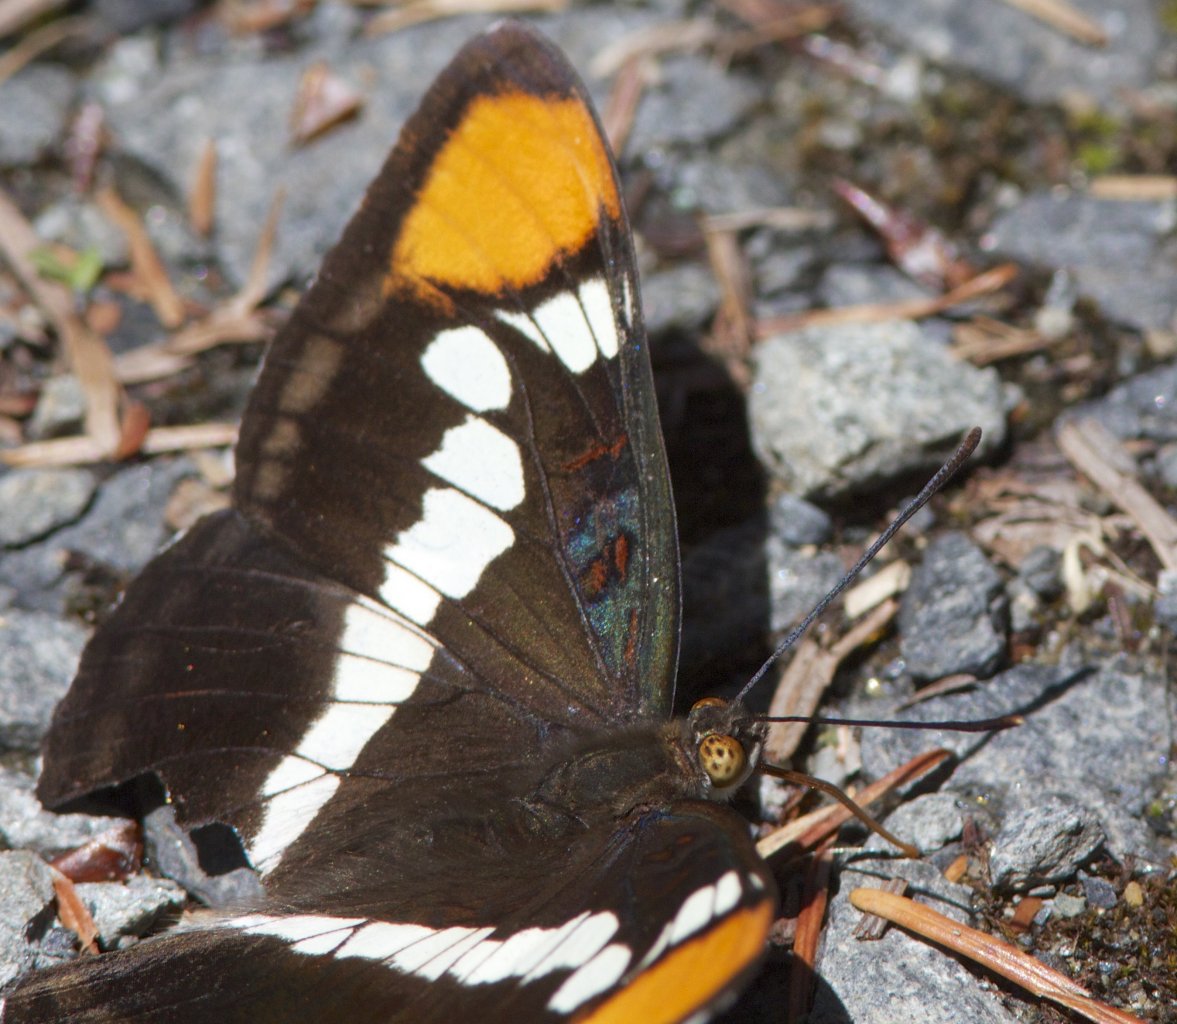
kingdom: Animalia
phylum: Arthropoda
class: Insecta
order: Lepidoptera
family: Nymphalidae
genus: Limenitis
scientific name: Limenitis bredowii
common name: California Sister
